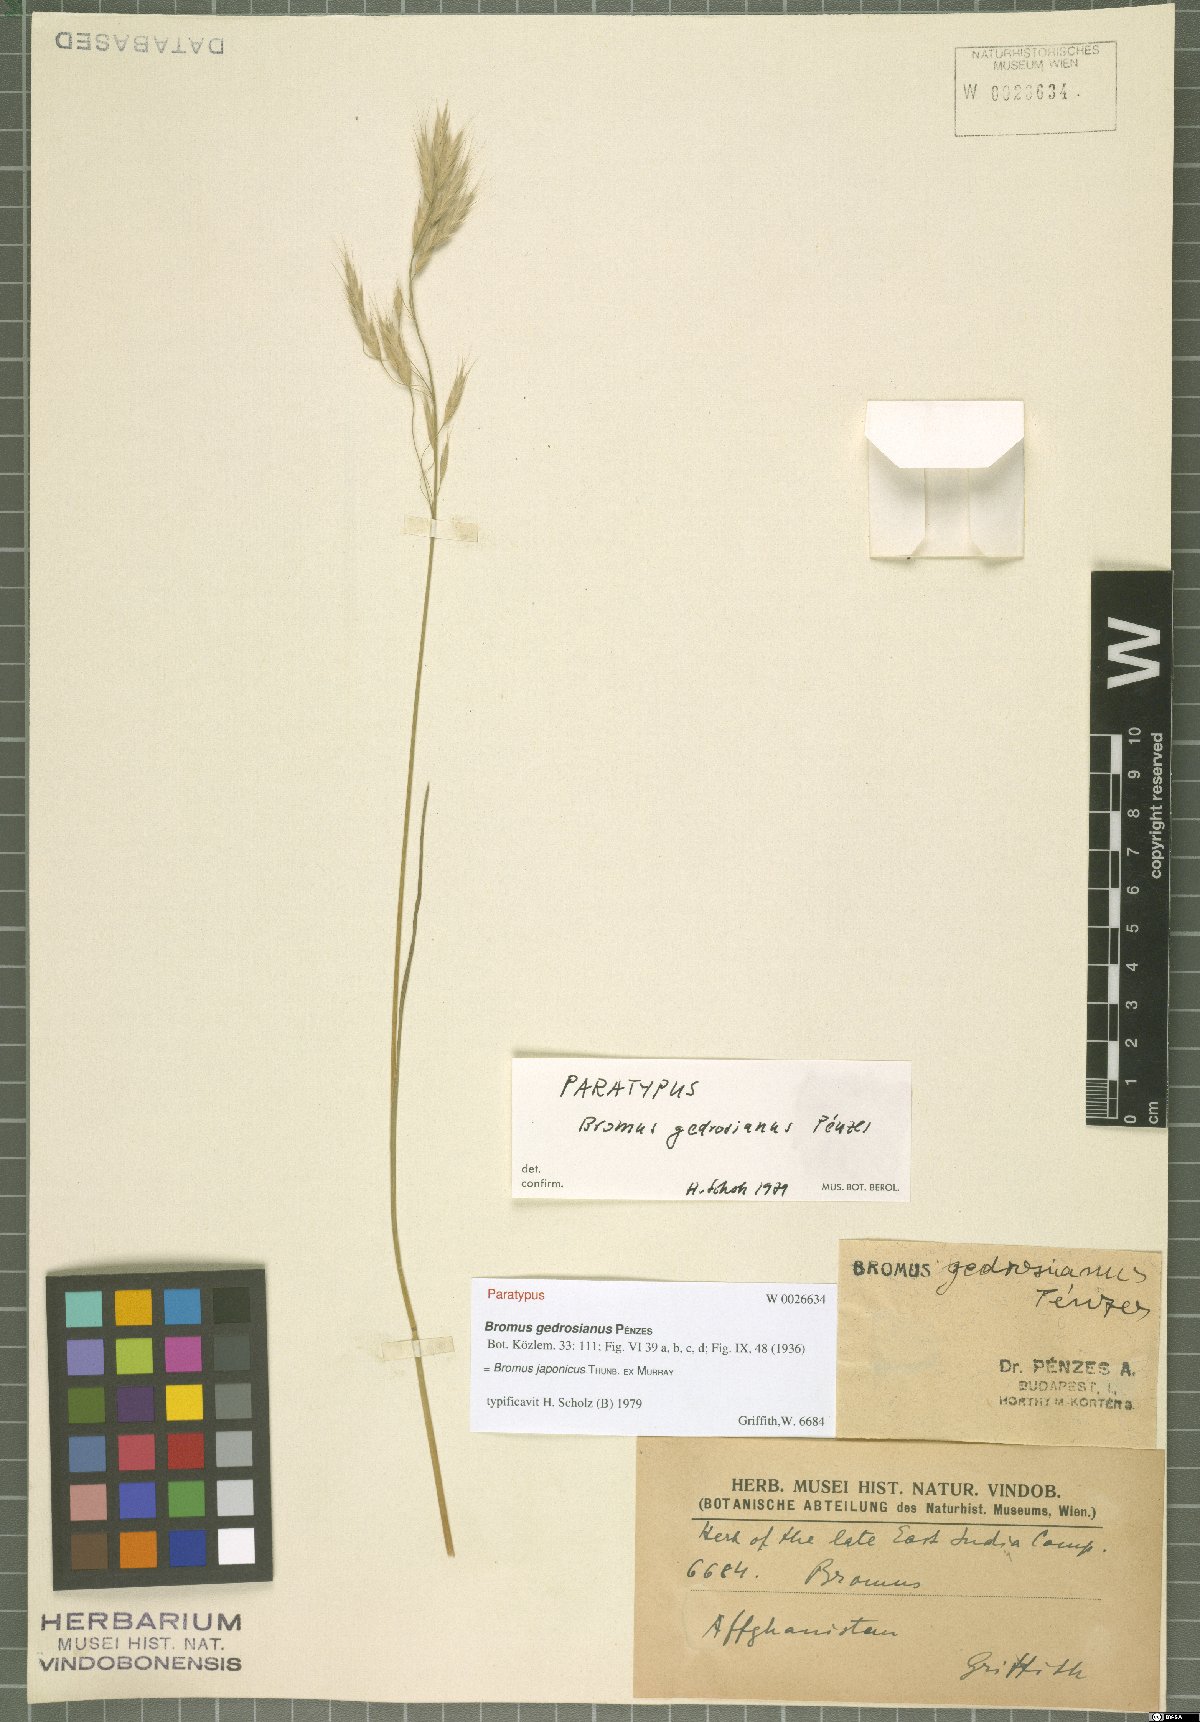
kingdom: Plantae
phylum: Tracheophyta
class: Liliopsida
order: Poales
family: Poaceae
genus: Bromus
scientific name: Bromus japonicus
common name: Japanese brome
